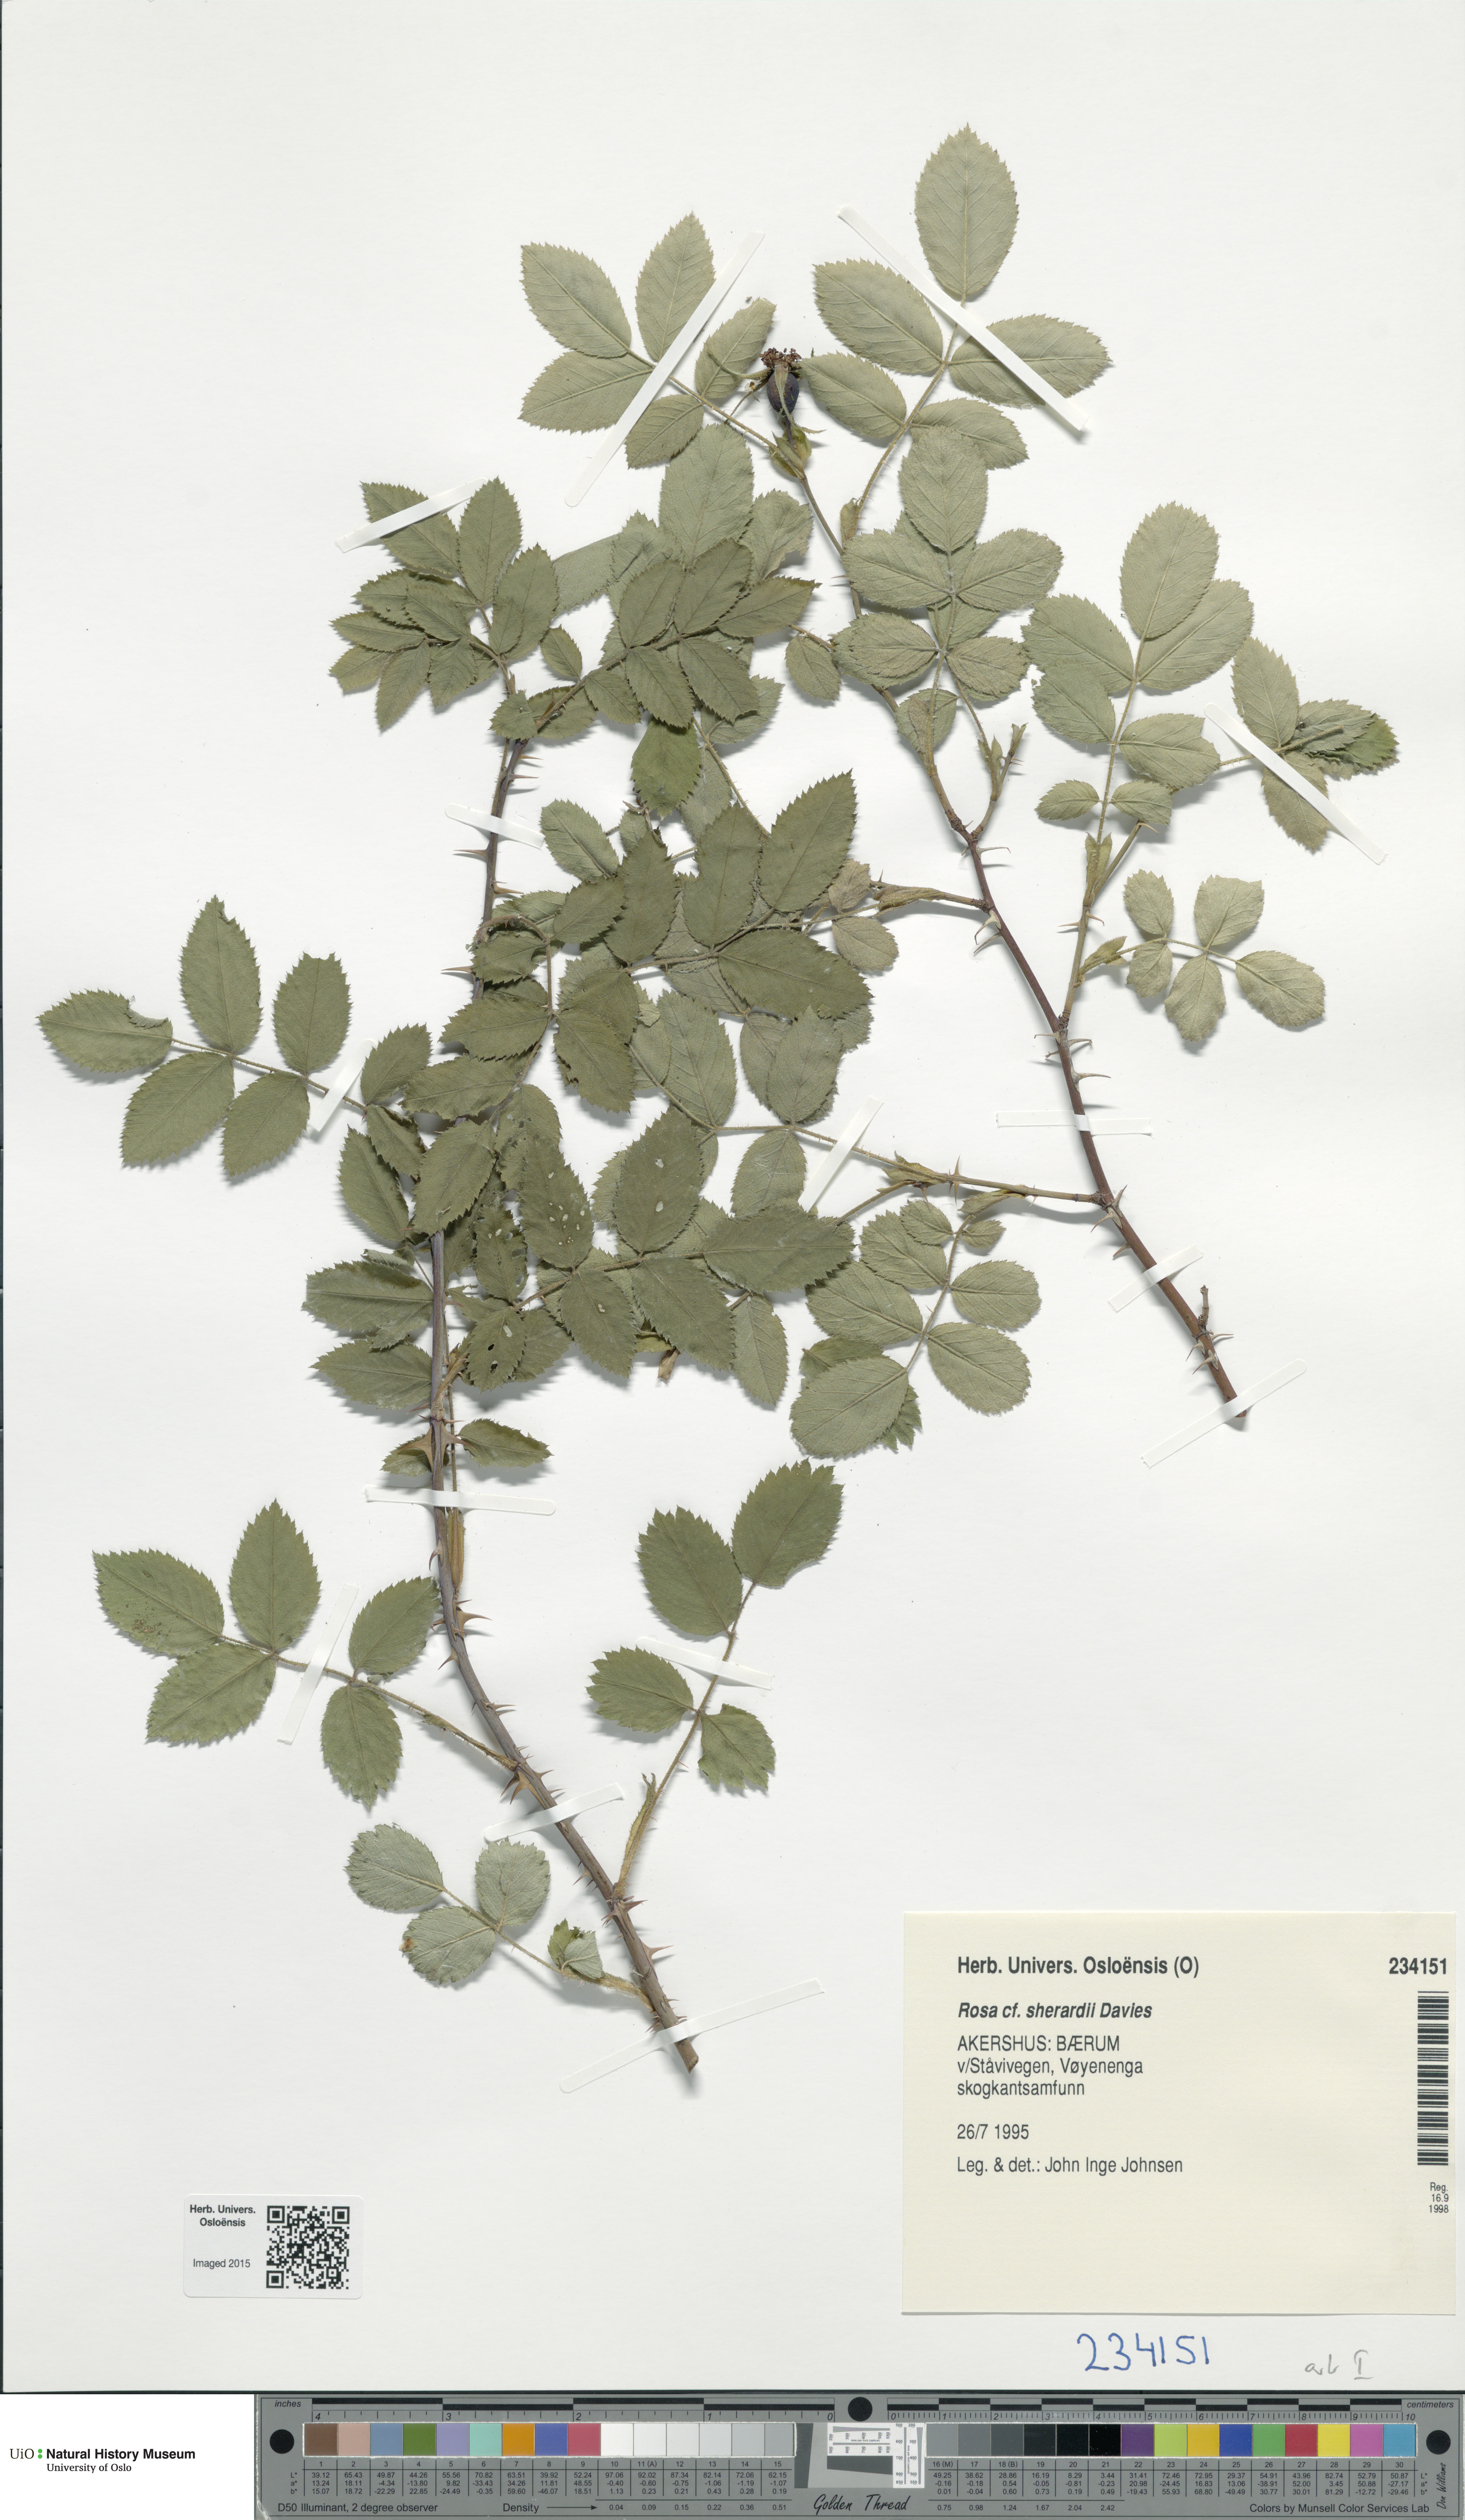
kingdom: Plantae
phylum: Tracheophyta
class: Magnoliopsida
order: Rosales
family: Rosaceae
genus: Rosa
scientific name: Rosa sherardii
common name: Sherard's downy rose
